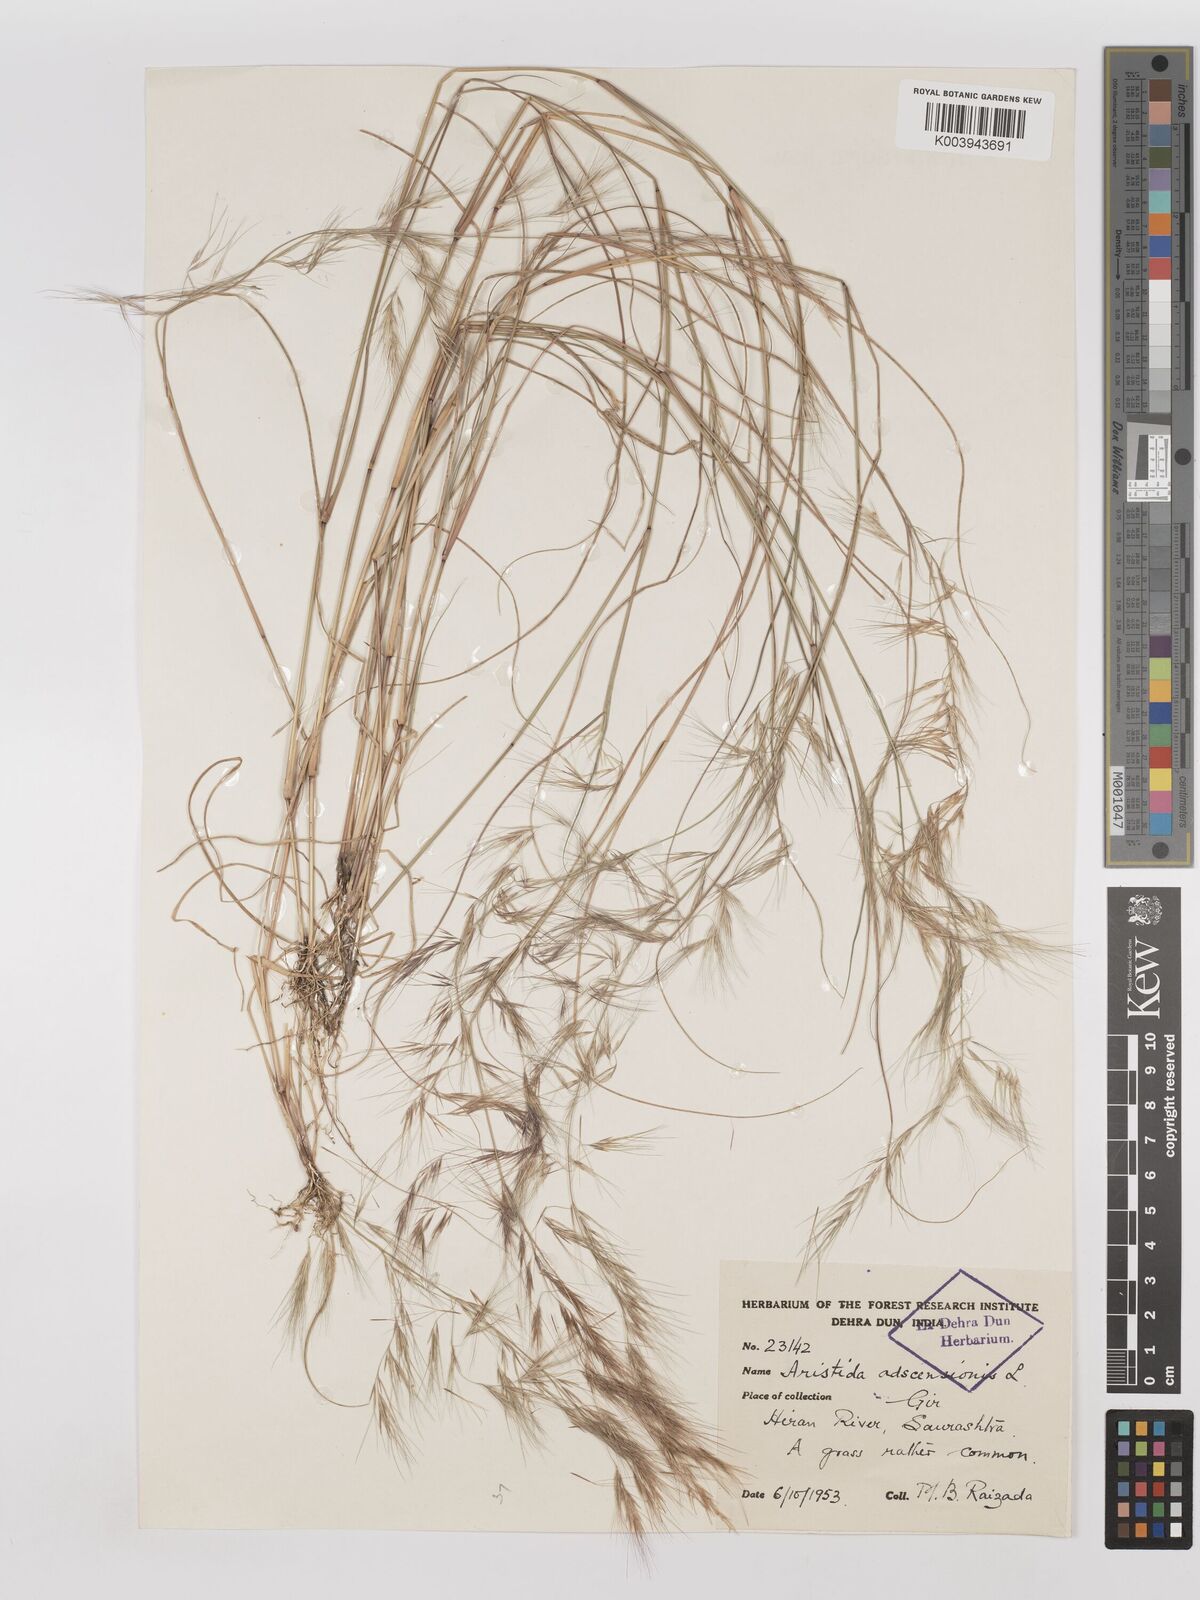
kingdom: Plantae
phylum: Tracheophyta
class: Liliopsida
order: Poales
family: Poaceae
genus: Aristida
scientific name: Aristida adscensionis
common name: Sixweeks threeawn
